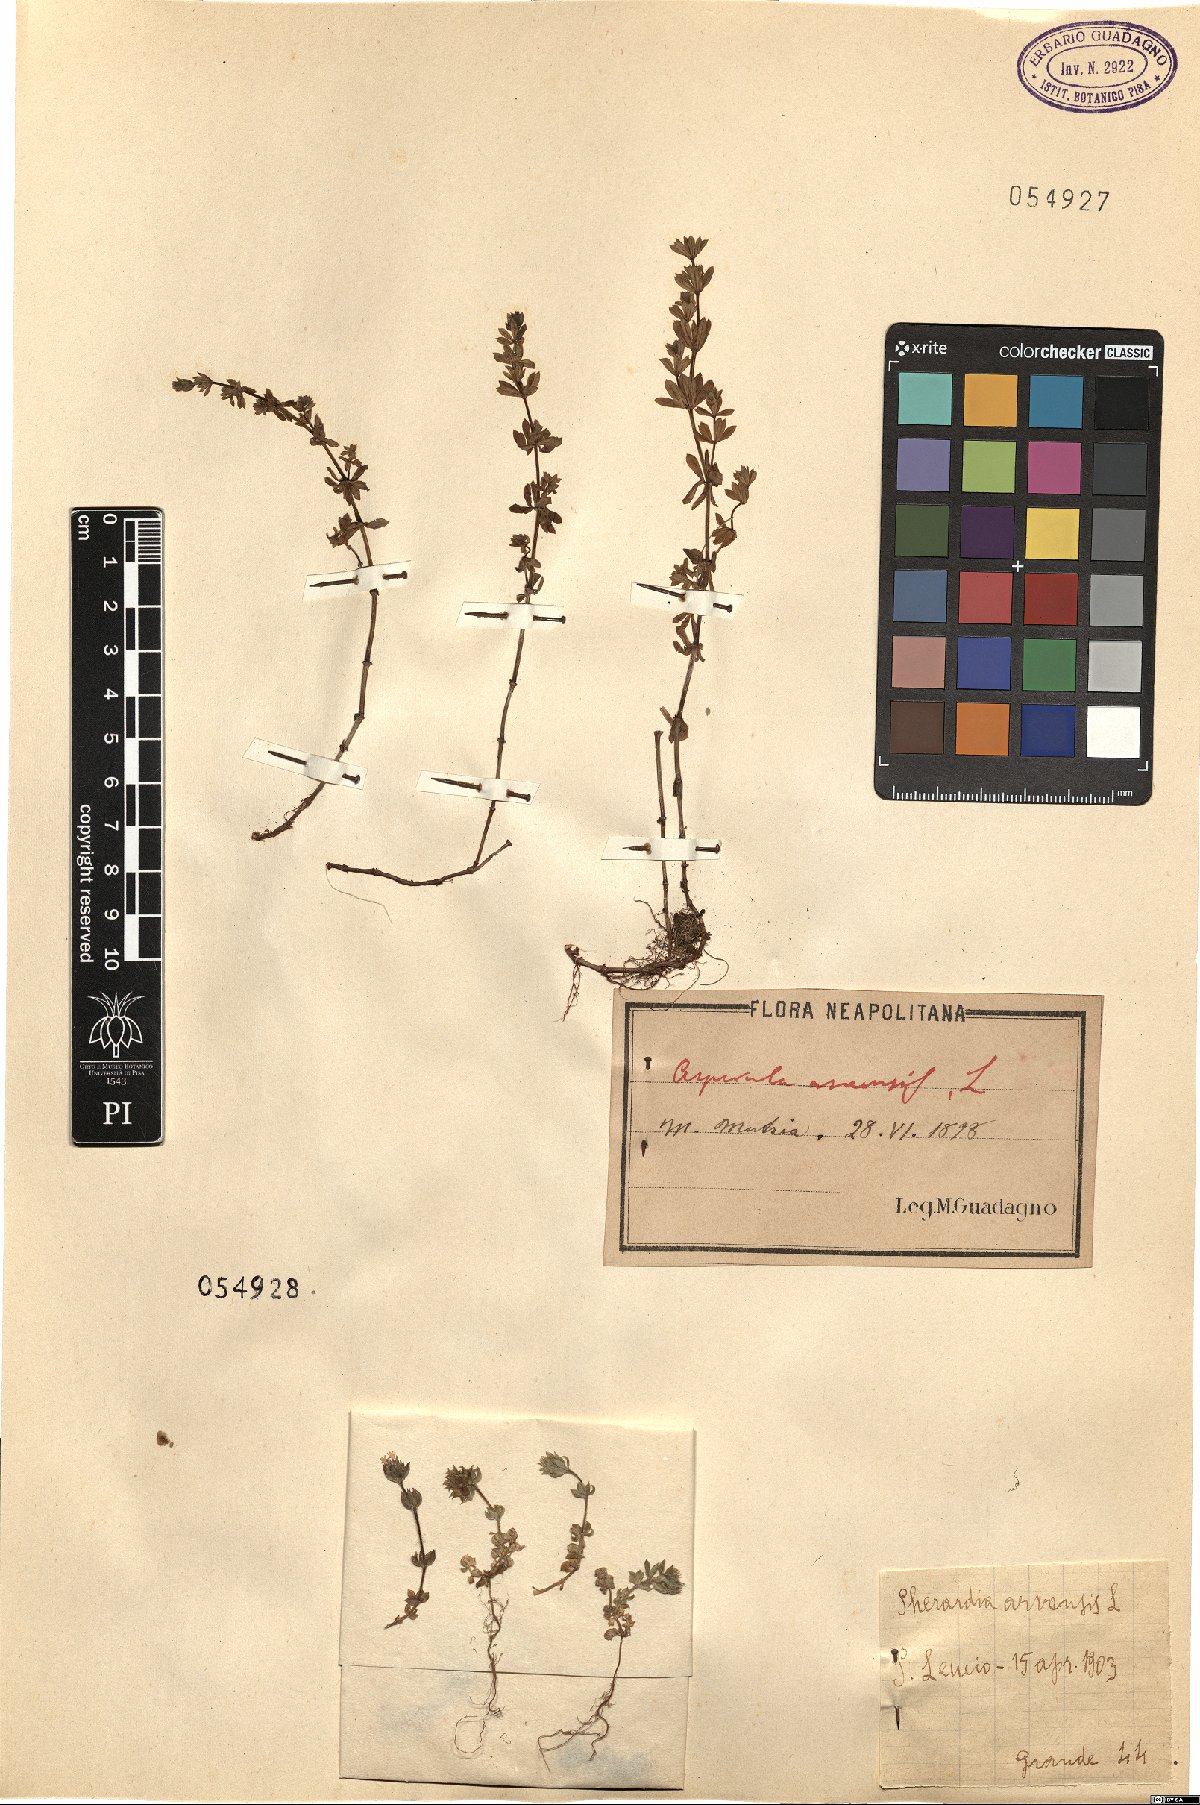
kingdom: Plantae
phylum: Tracheophyta
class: Magnoliopsida
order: Gentianales
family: Rubiaceae
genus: Sherardia
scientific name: Sherardia arvensis
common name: Field madder
